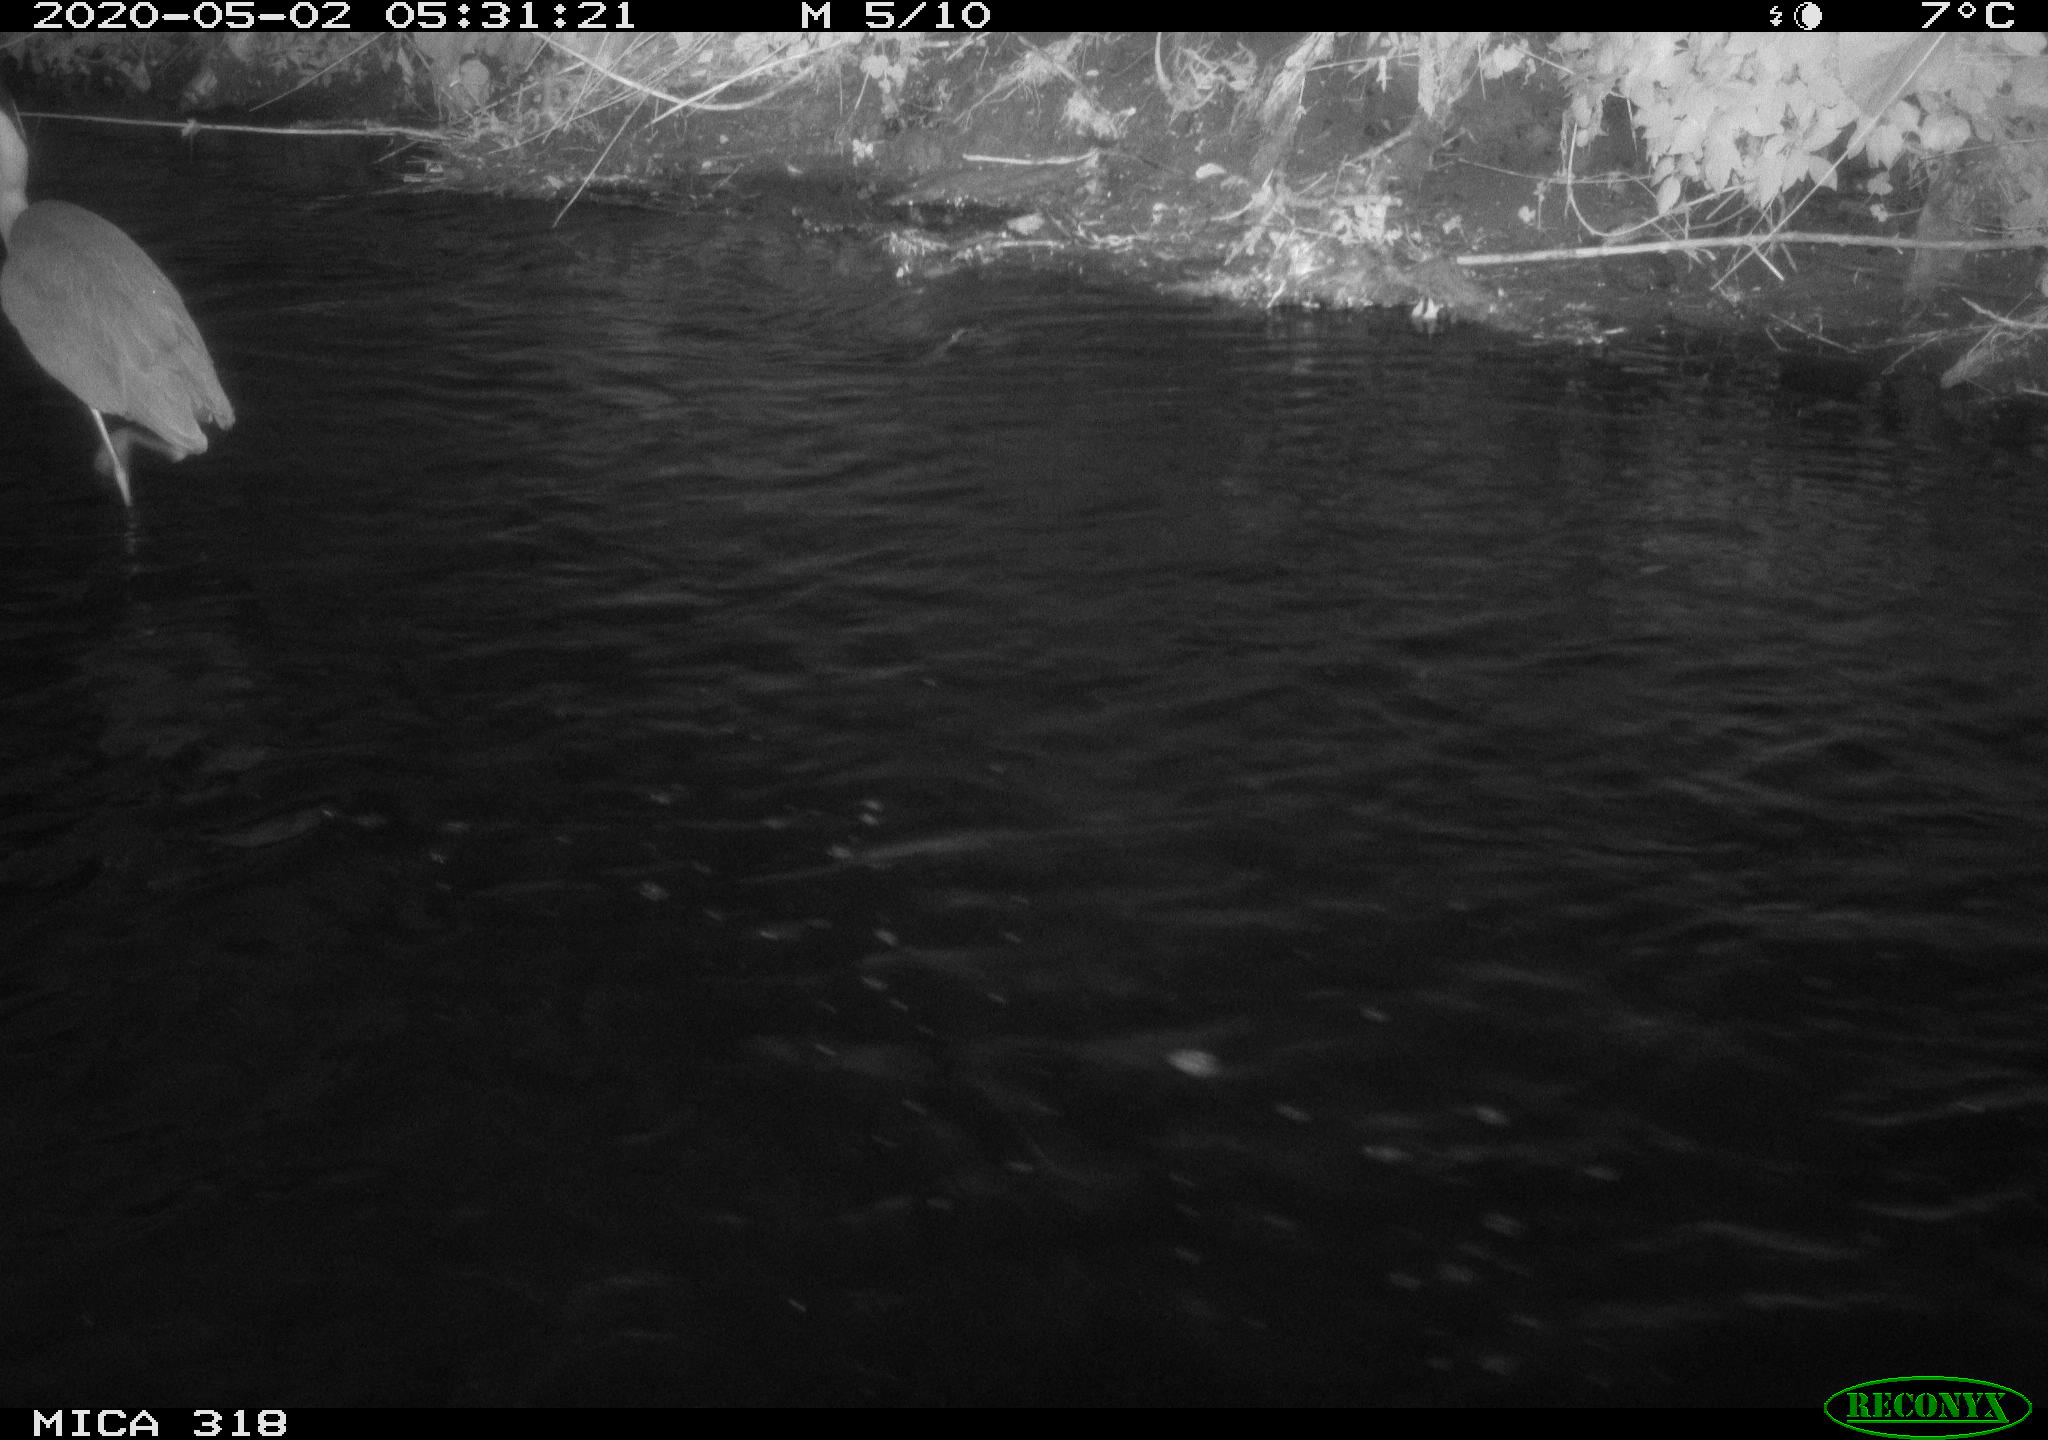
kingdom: Animalia
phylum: Chordata
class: Aves
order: Pelecaniformes
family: Ardeidae
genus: Ardea
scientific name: Ardea cinerea
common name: Grey heron
